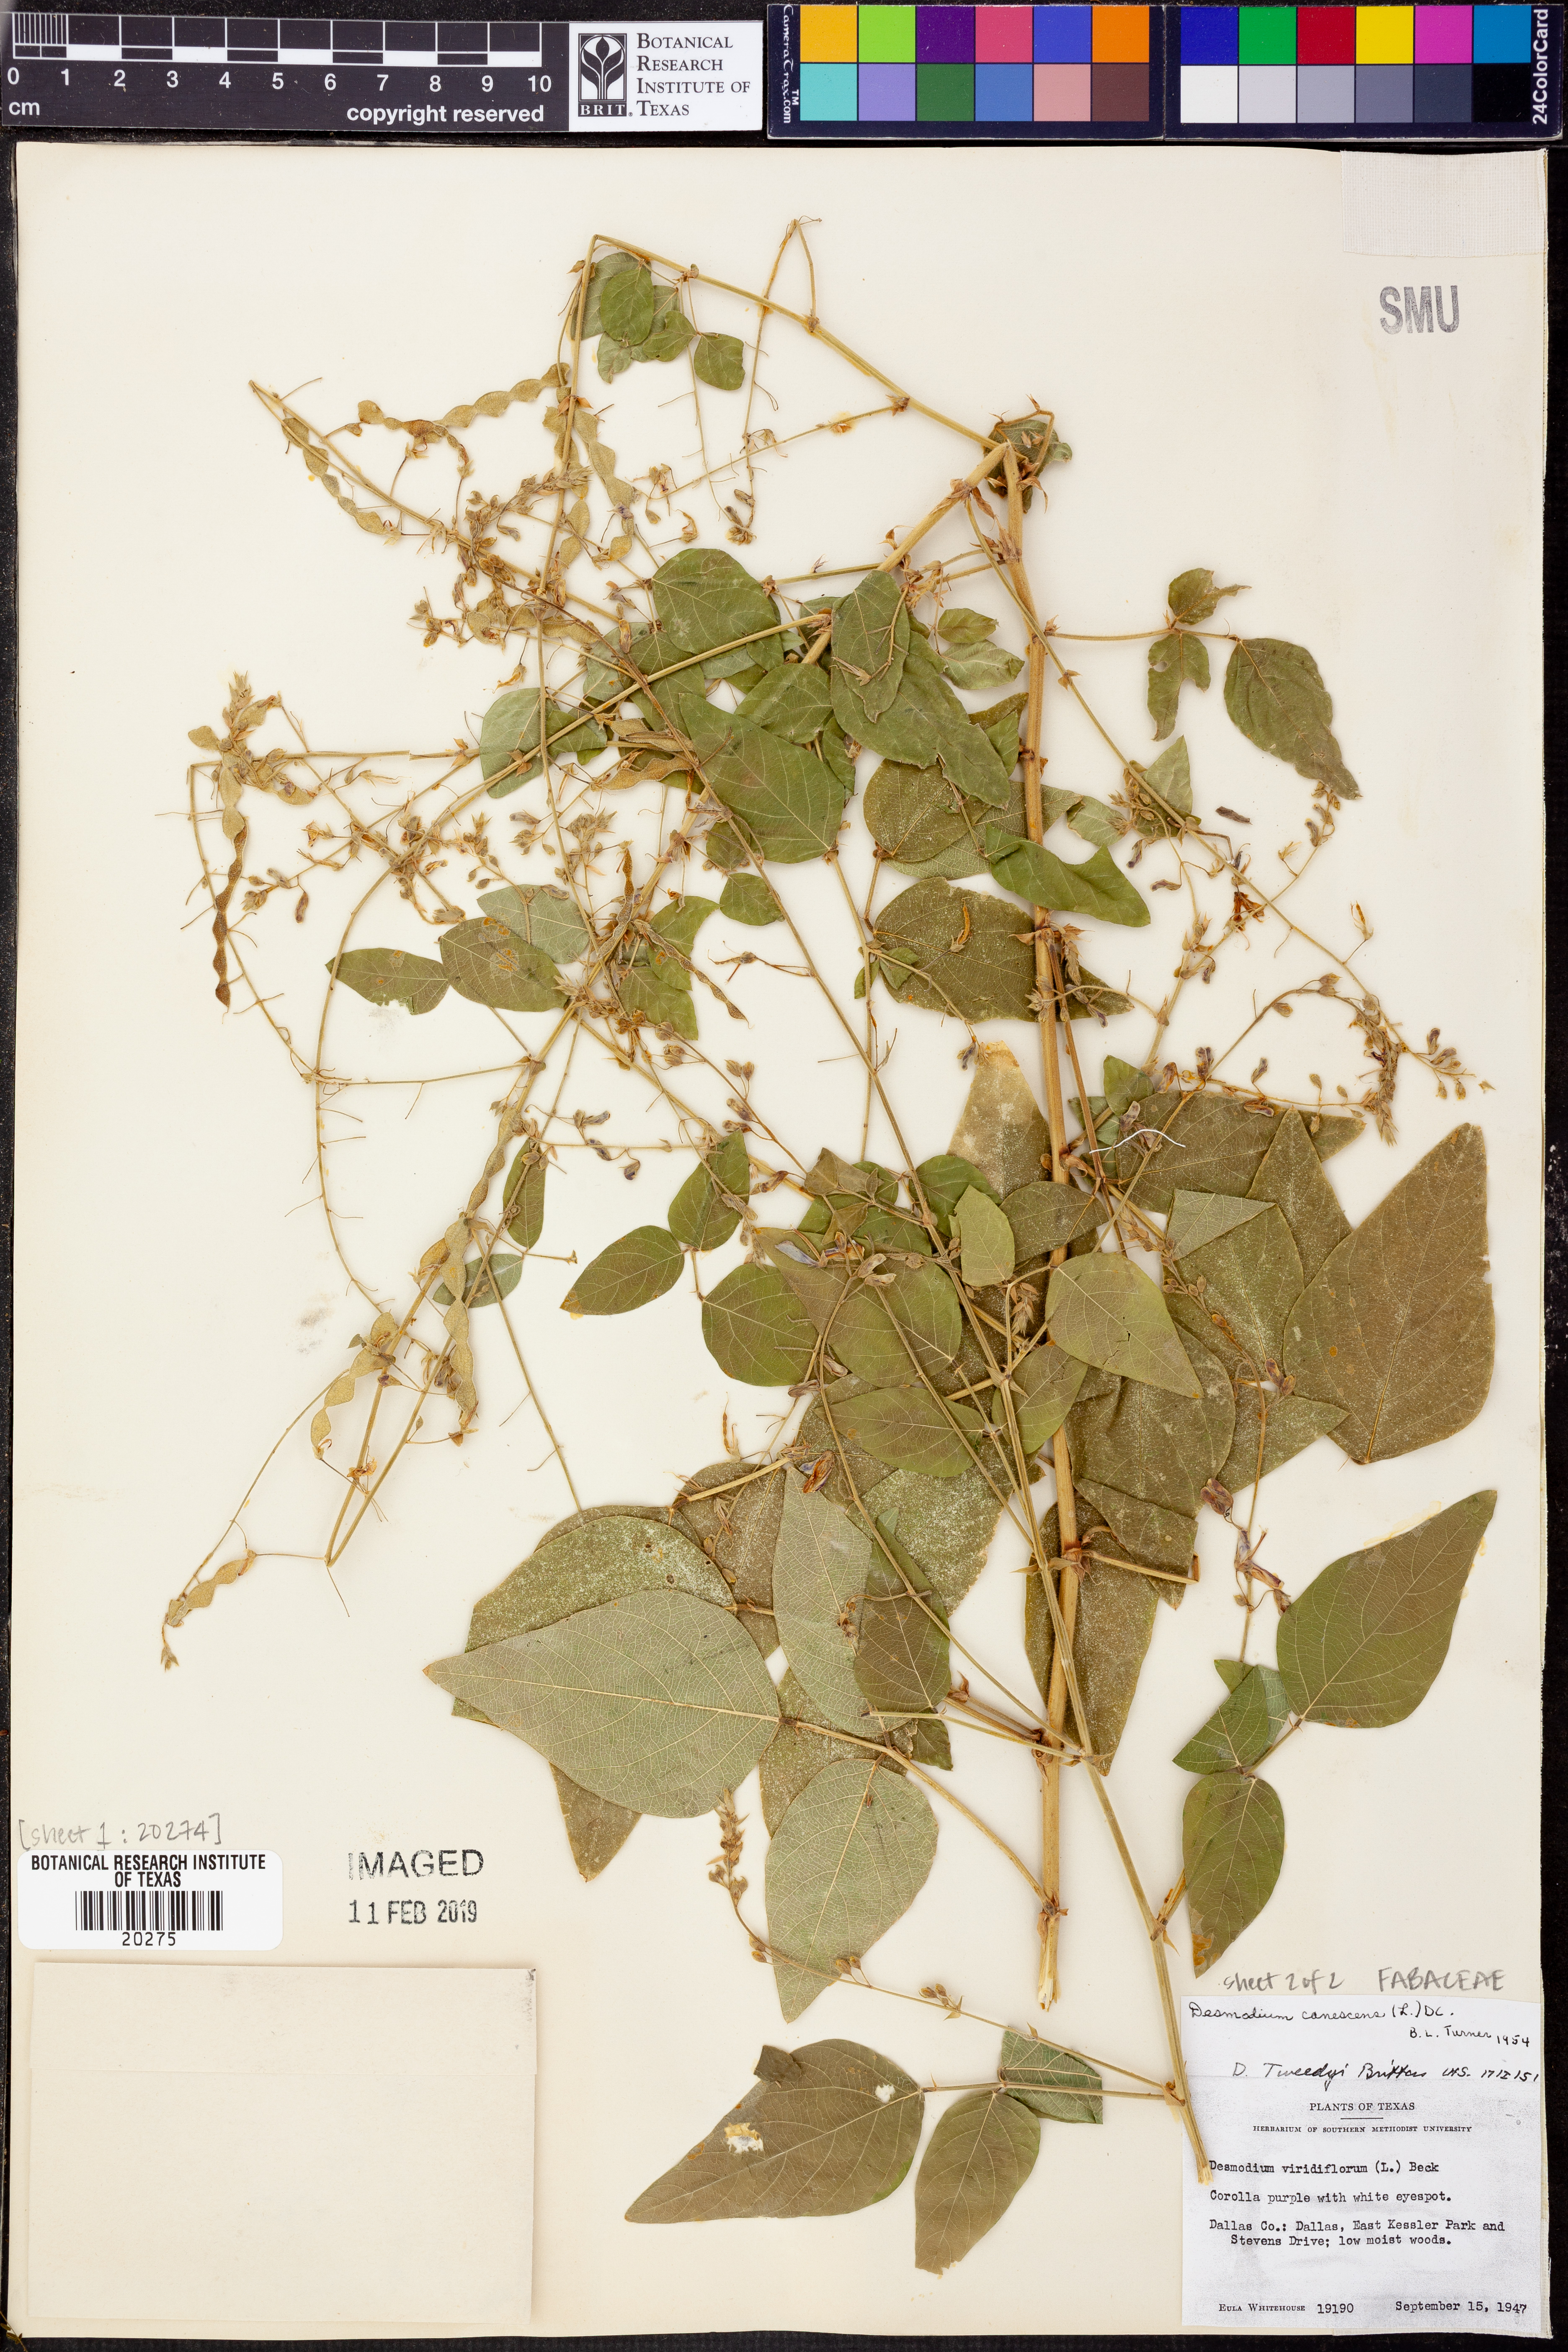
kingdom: Plantae
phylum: Tracheophyta
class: Magnoliopsida
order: Fabales
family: Fabaceae
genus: Desmodium
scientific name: Desmodium canadense
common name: Canada tick-trefoil
